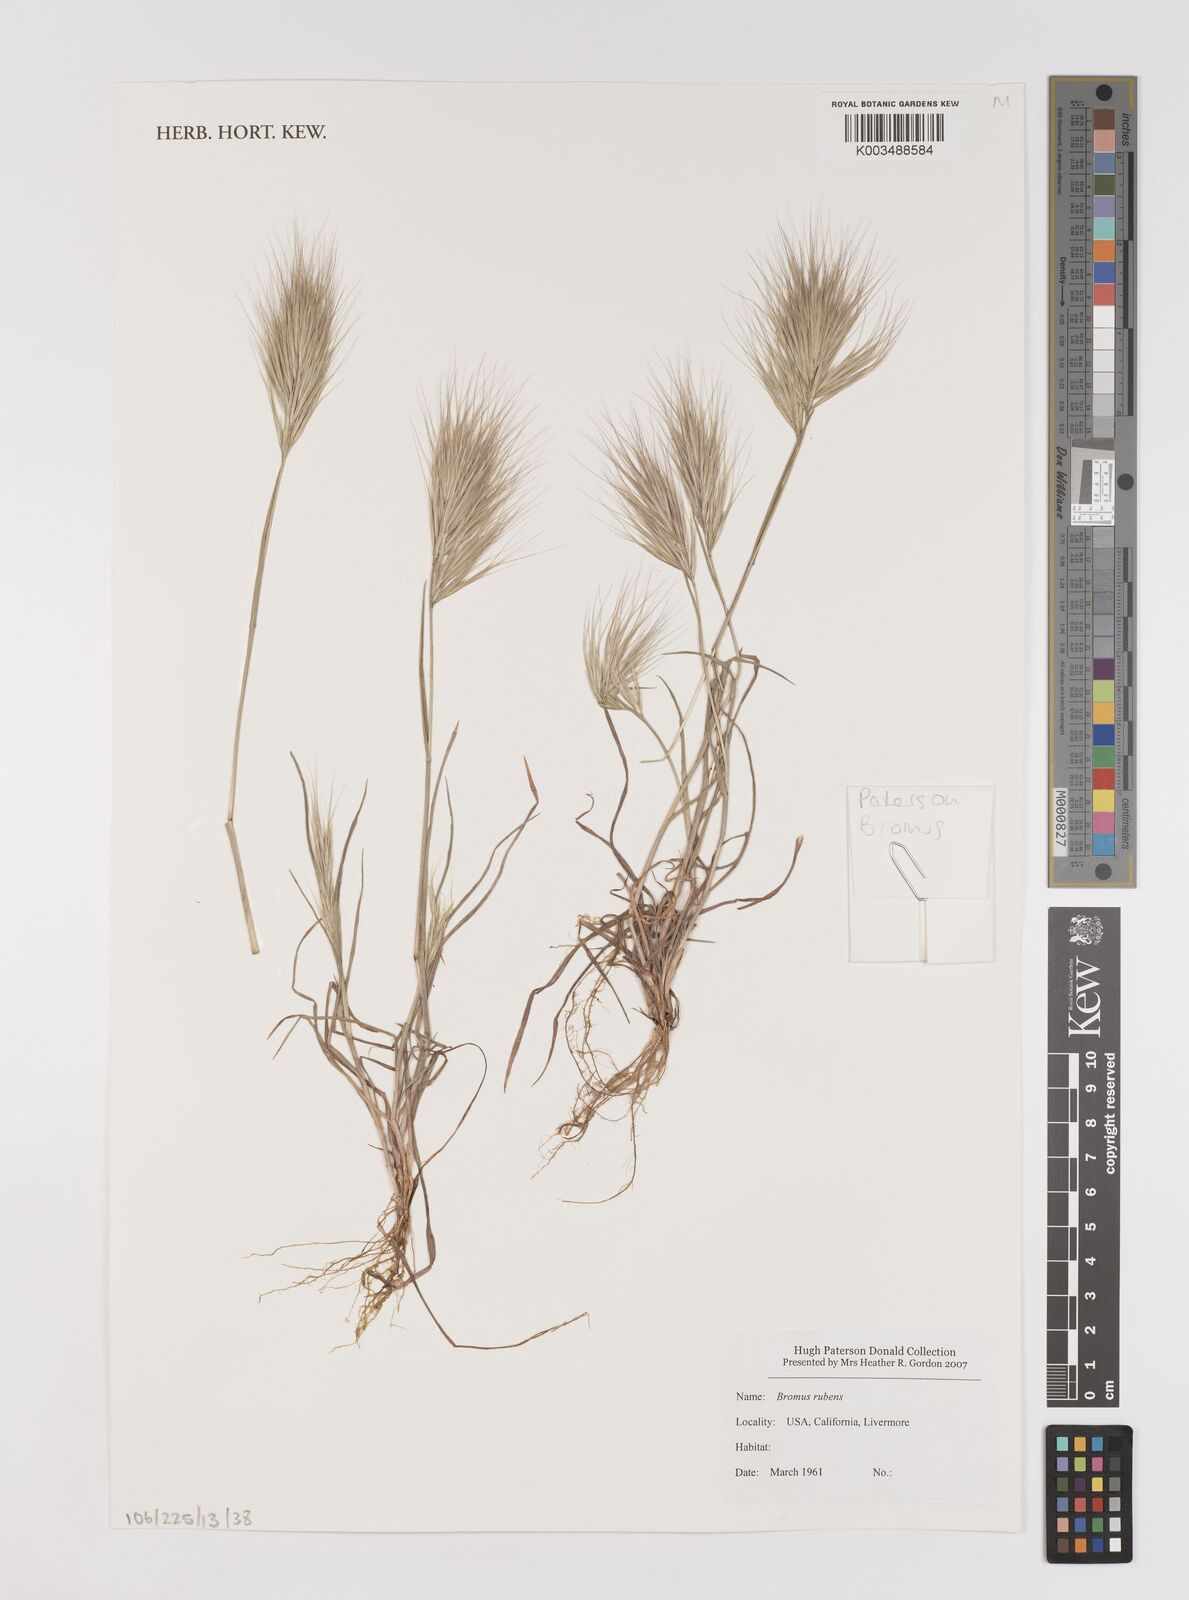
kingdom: Plantae
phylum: Tracheophyta
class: Liliopsida
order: Poales
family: Poaceae
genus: Bromus
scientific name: Bromus rubens
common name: Red brome
